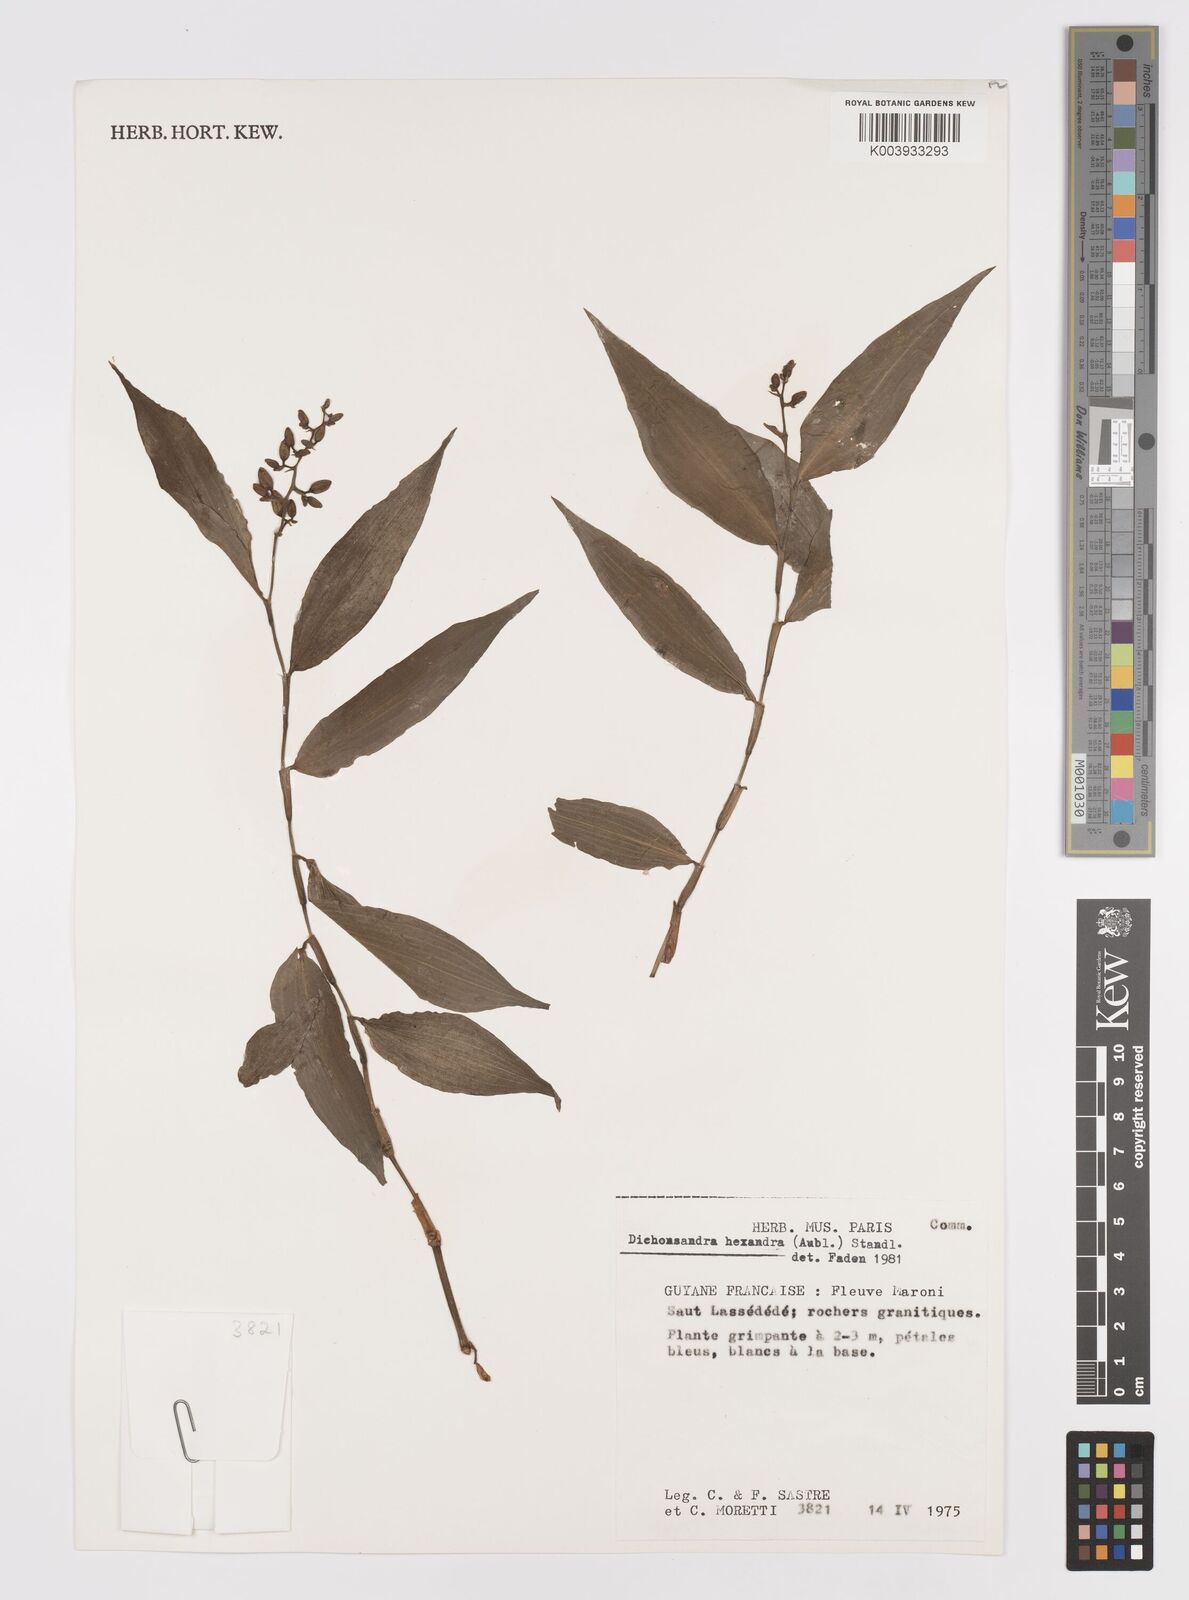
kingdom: Plantae
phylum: Tracheophyta
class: Liliopsida
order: Commelinales
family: Commelinaceae
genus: Dichorisandra
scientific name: Dichorisandra hexandra
